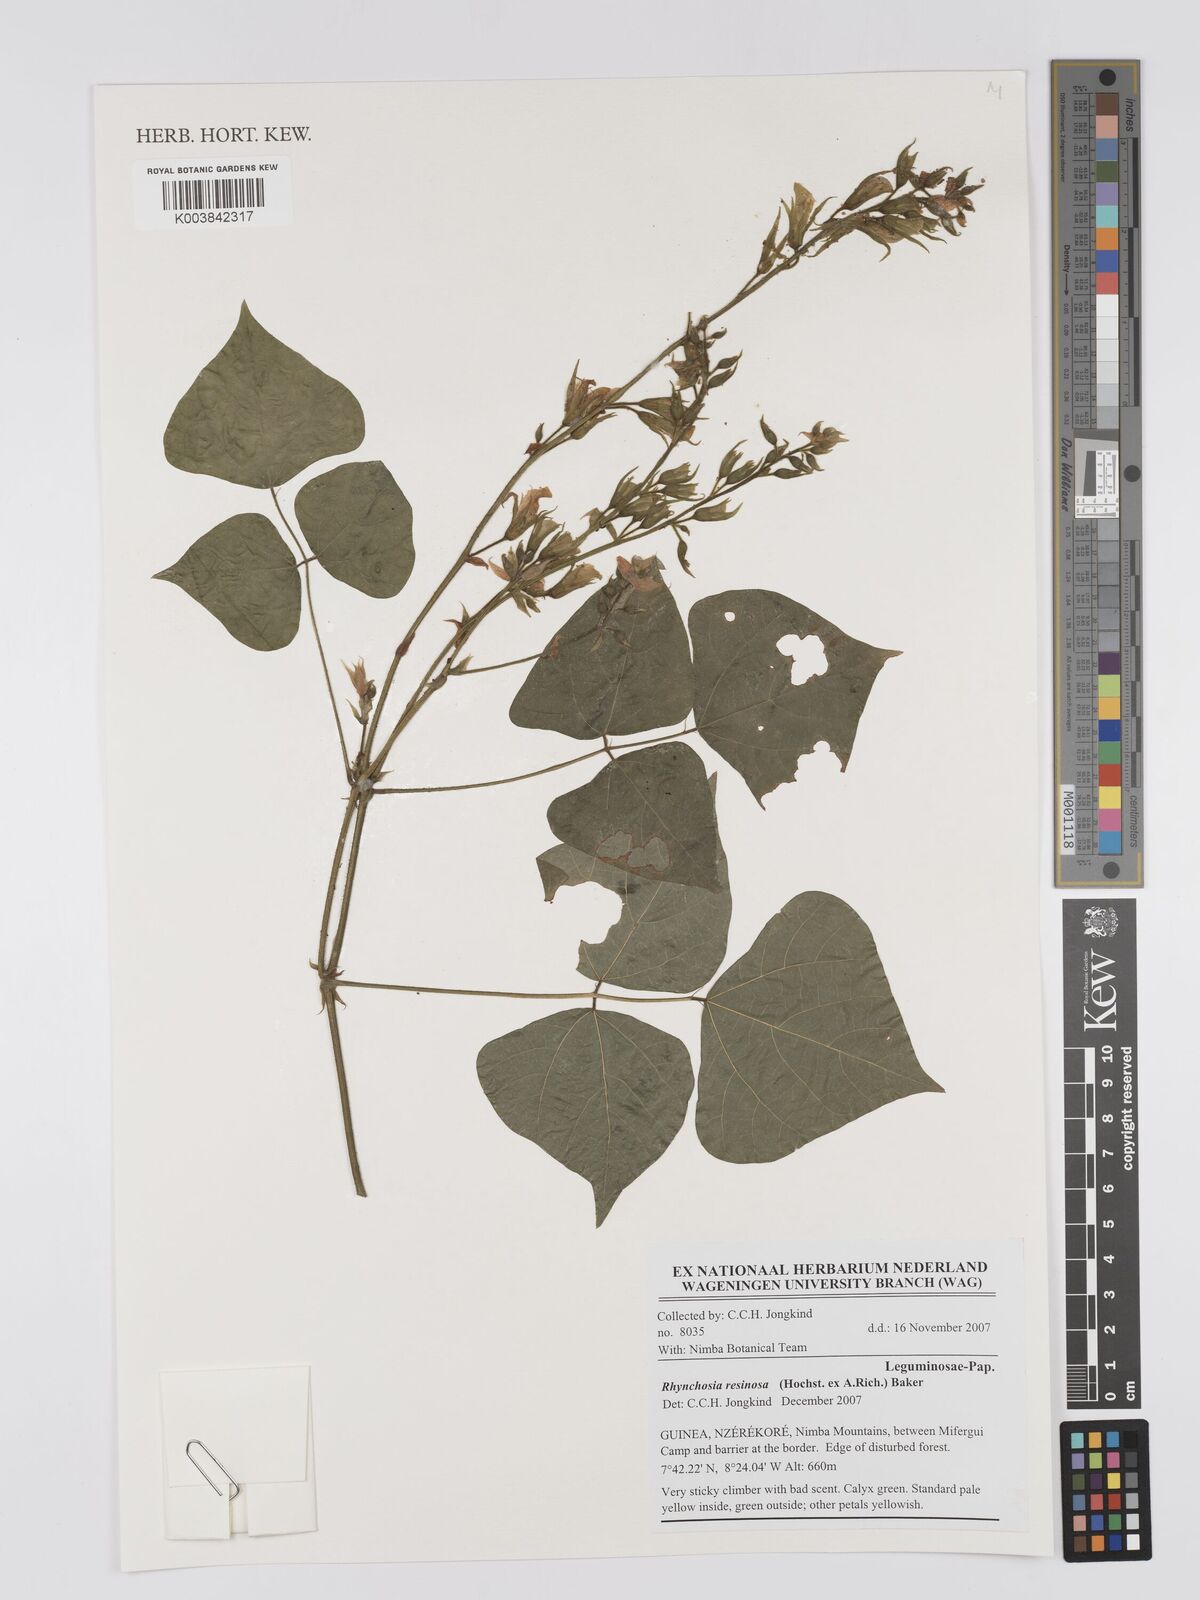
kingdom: Plantae
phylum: Tracheophyta
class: Magnoliopsida
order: Fabales
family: Fabaceae
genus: Rhynchosia
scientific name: Rhynchosia resinosa
